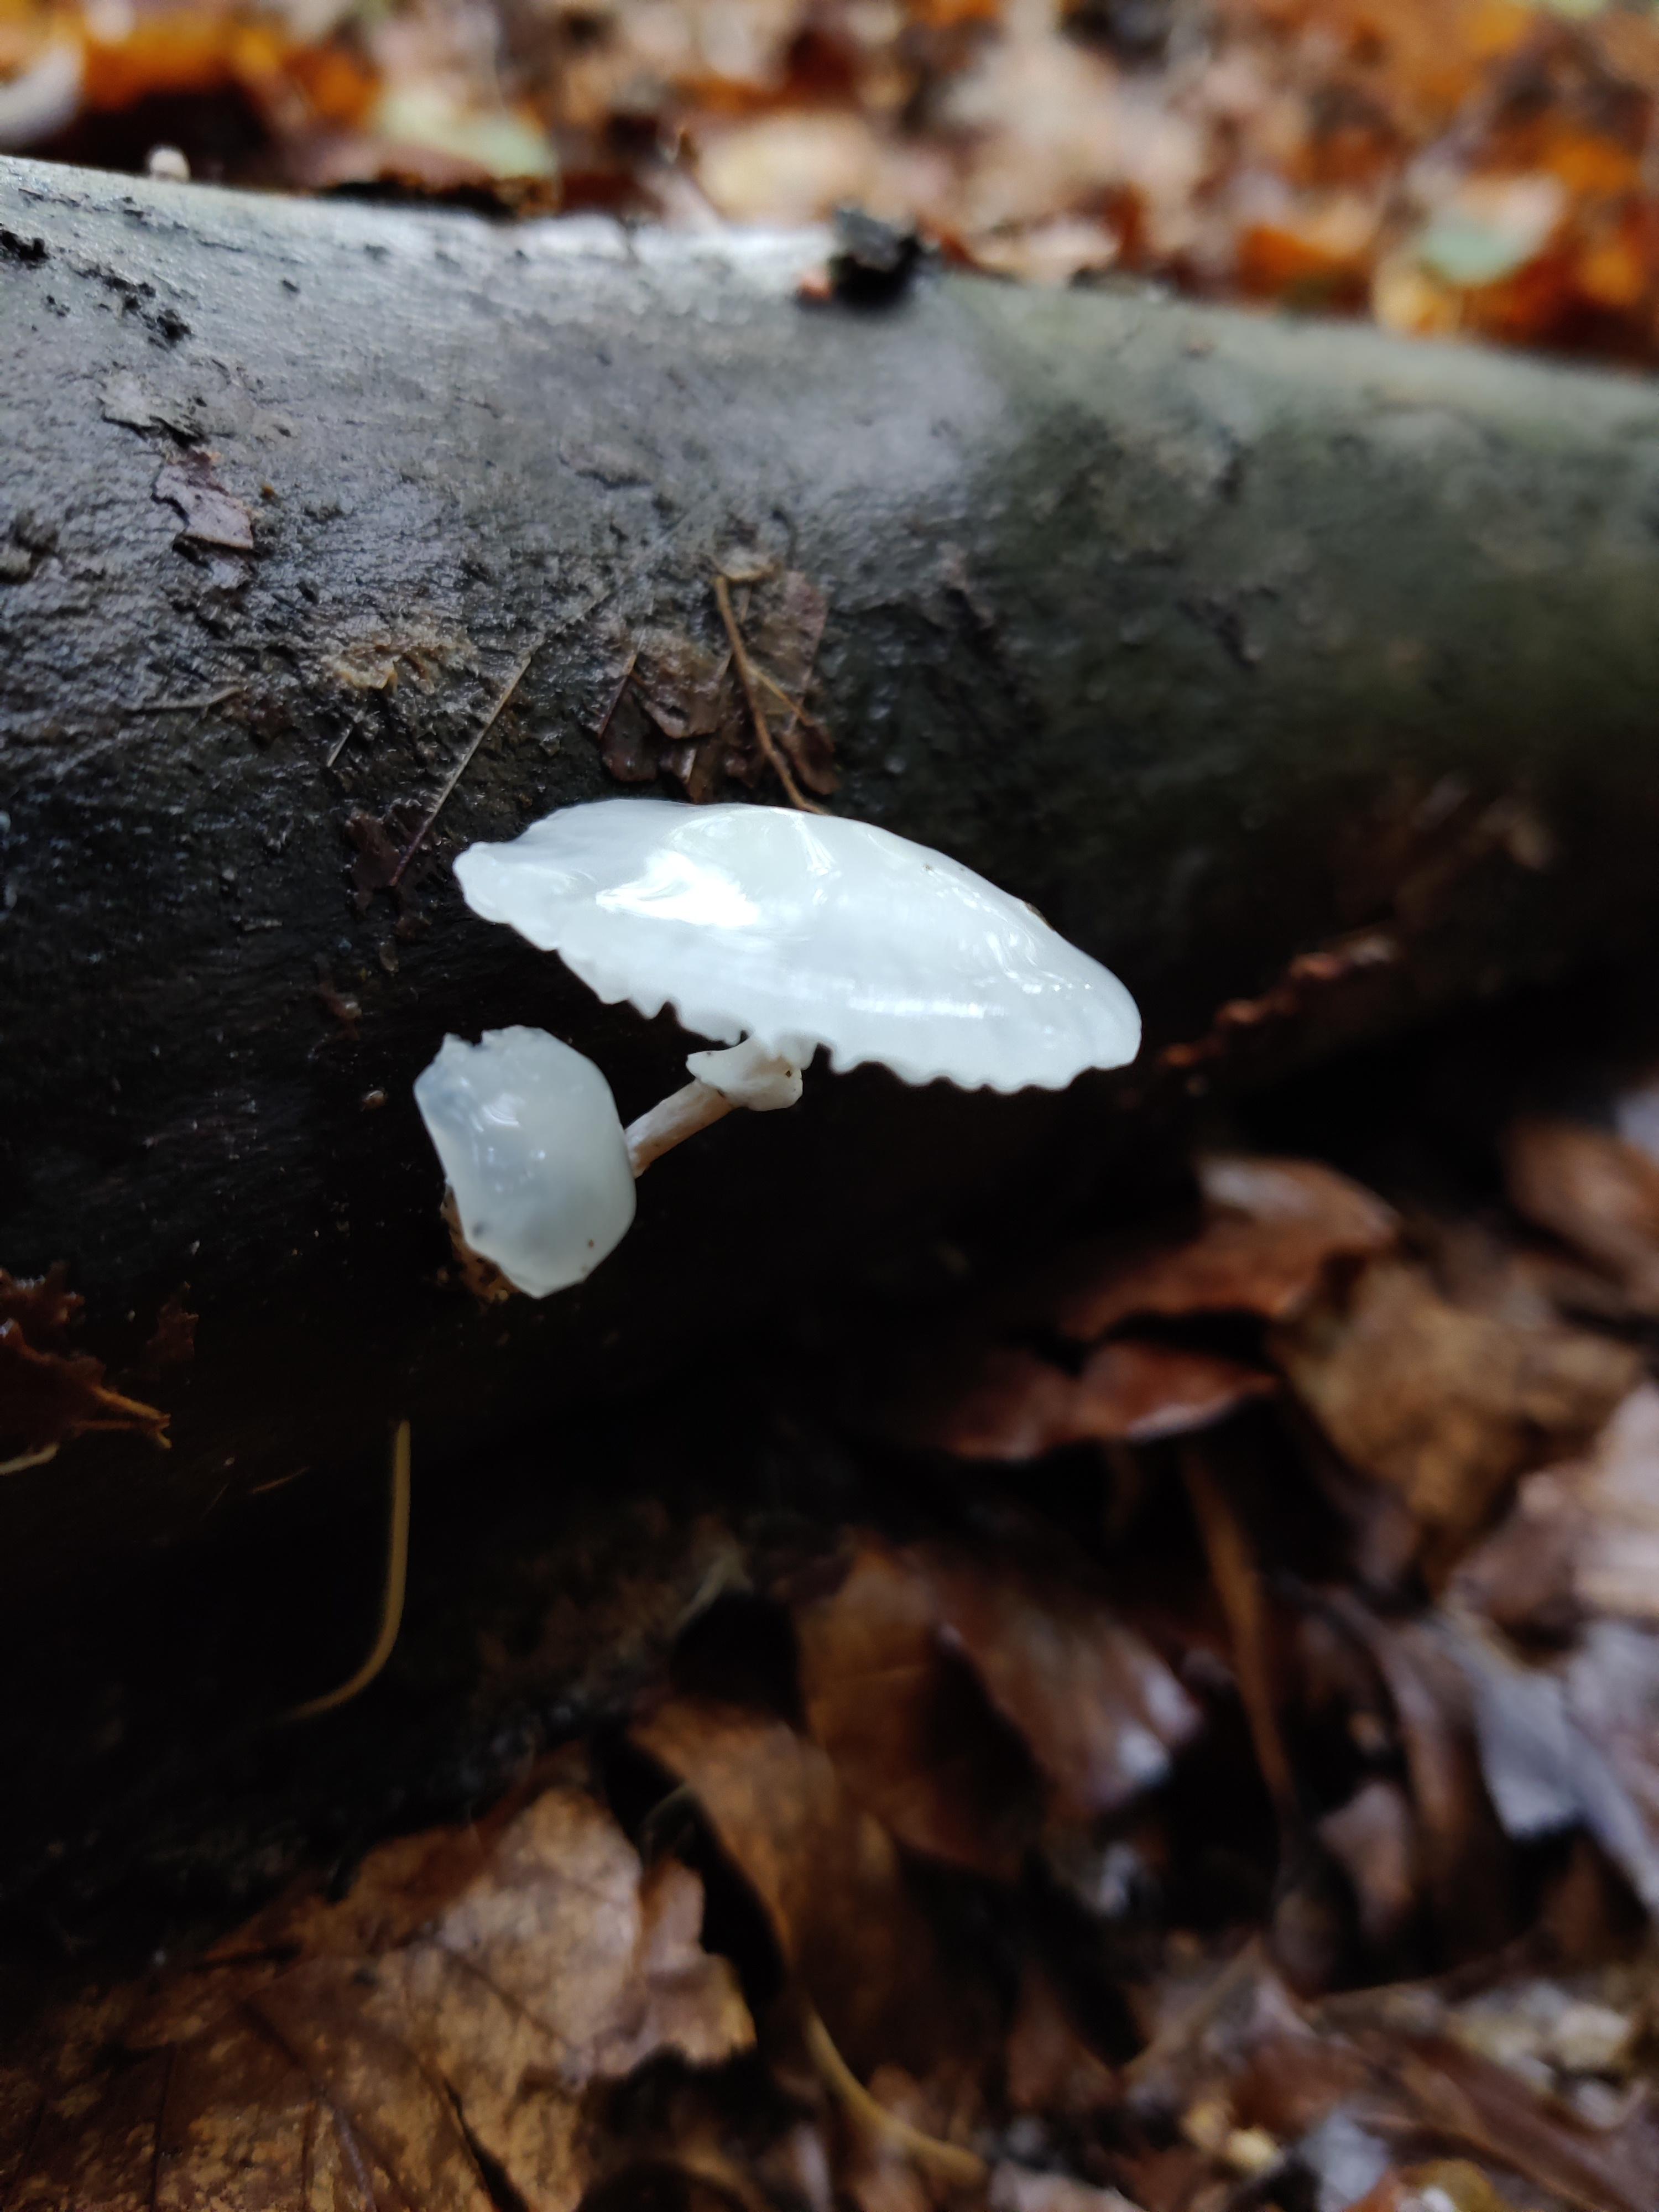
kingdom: Fungi
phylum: Basidiomycota
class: Agaricomycetes
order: Agaricales
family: Physalacriaceae
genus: Mucidula
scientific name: Mucidula mucida
